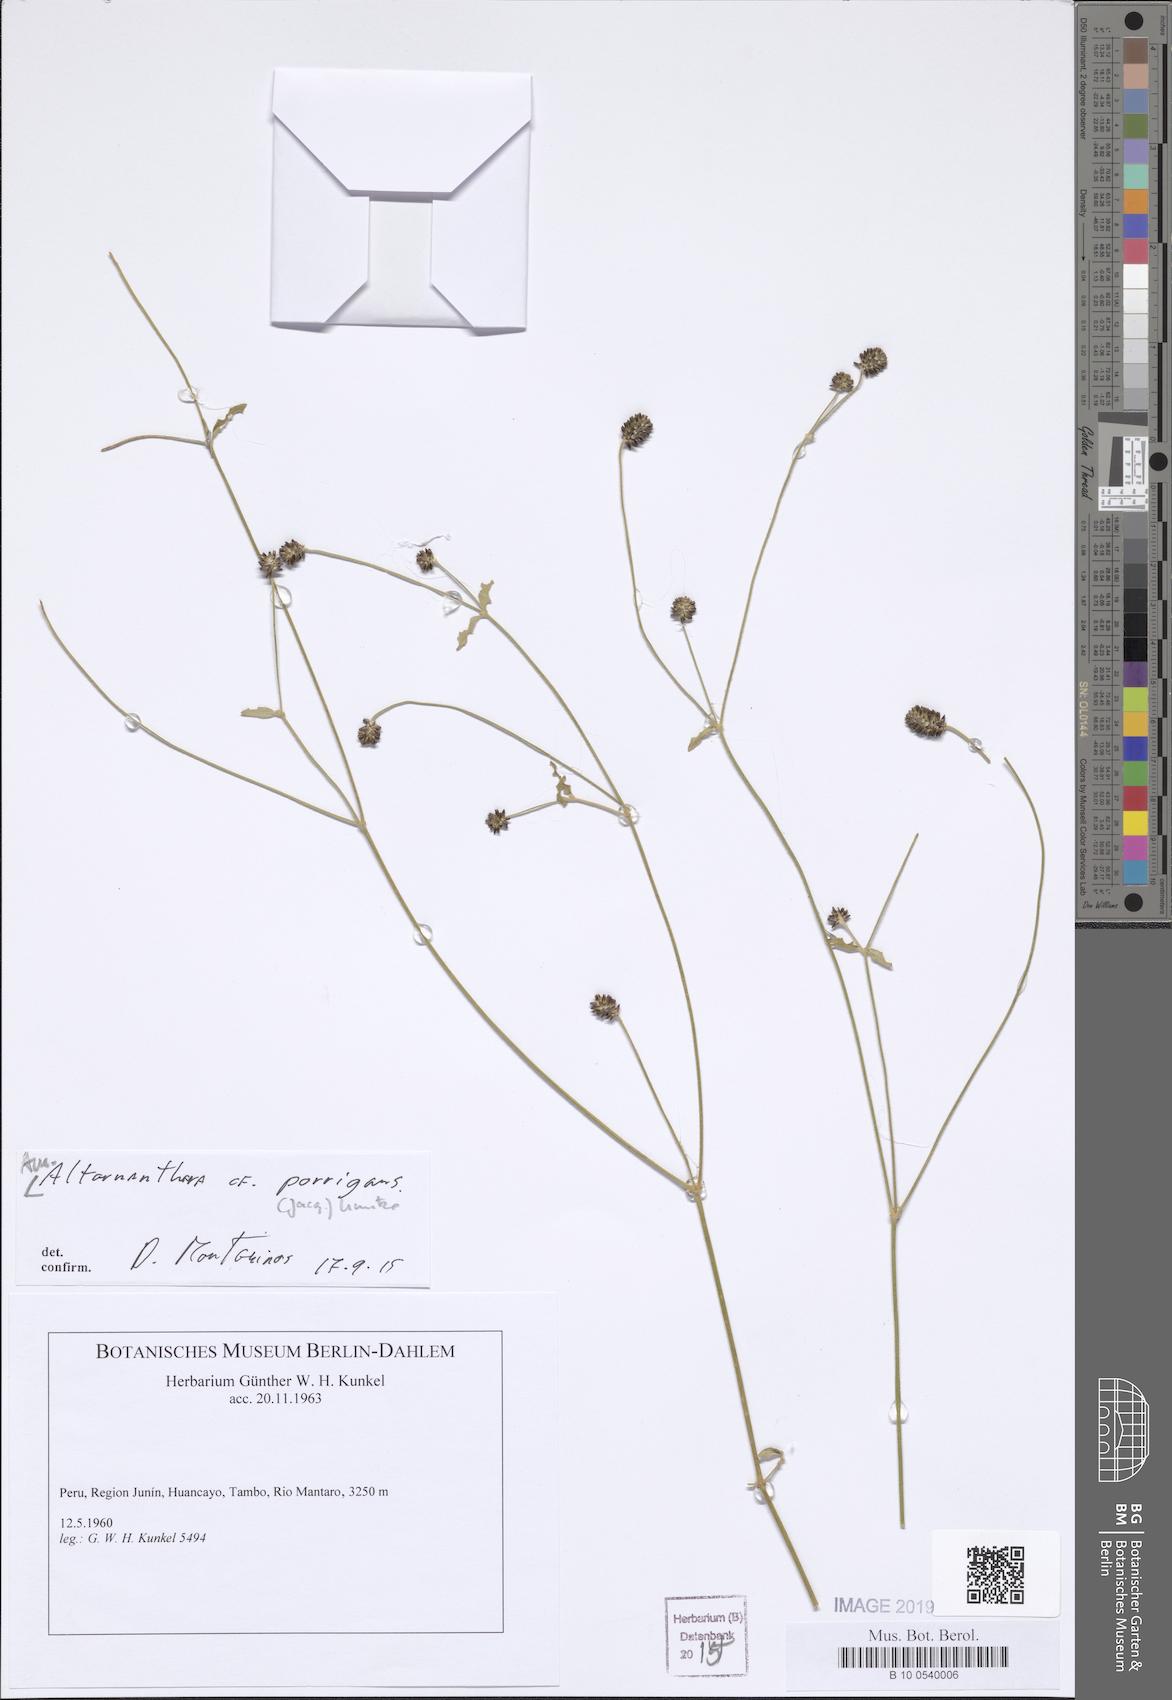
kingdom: Plantae
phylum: Tracheophyta
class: Magnoliopsida
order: Caryophyllales
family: Amaranthaceae
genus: Alternanthera
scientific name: Alternanthera porrigens
